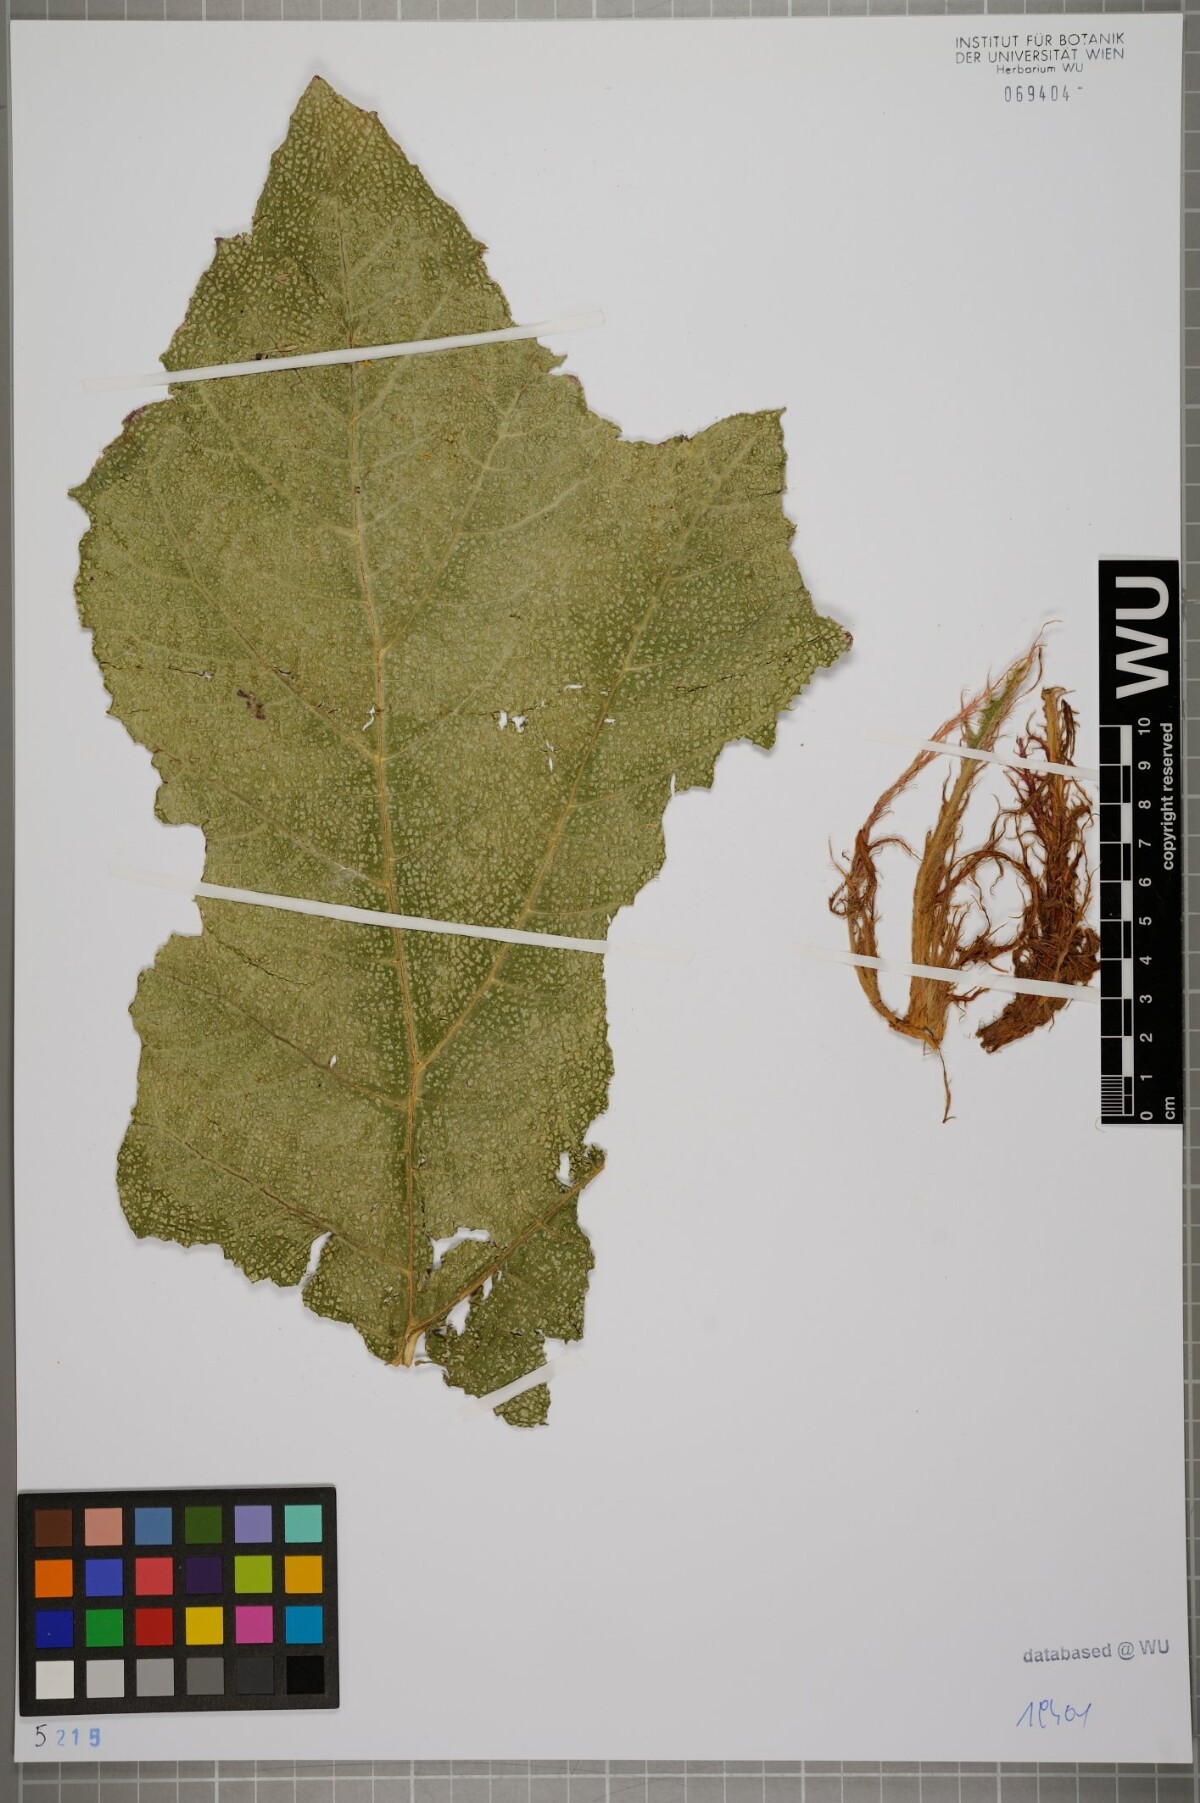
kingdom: Plantae
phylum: Tracheophyta
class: Magnoliopsida
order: Gunnerales
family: Gunneraceae
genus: Gunnera
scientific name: Gunnera masafuerae
